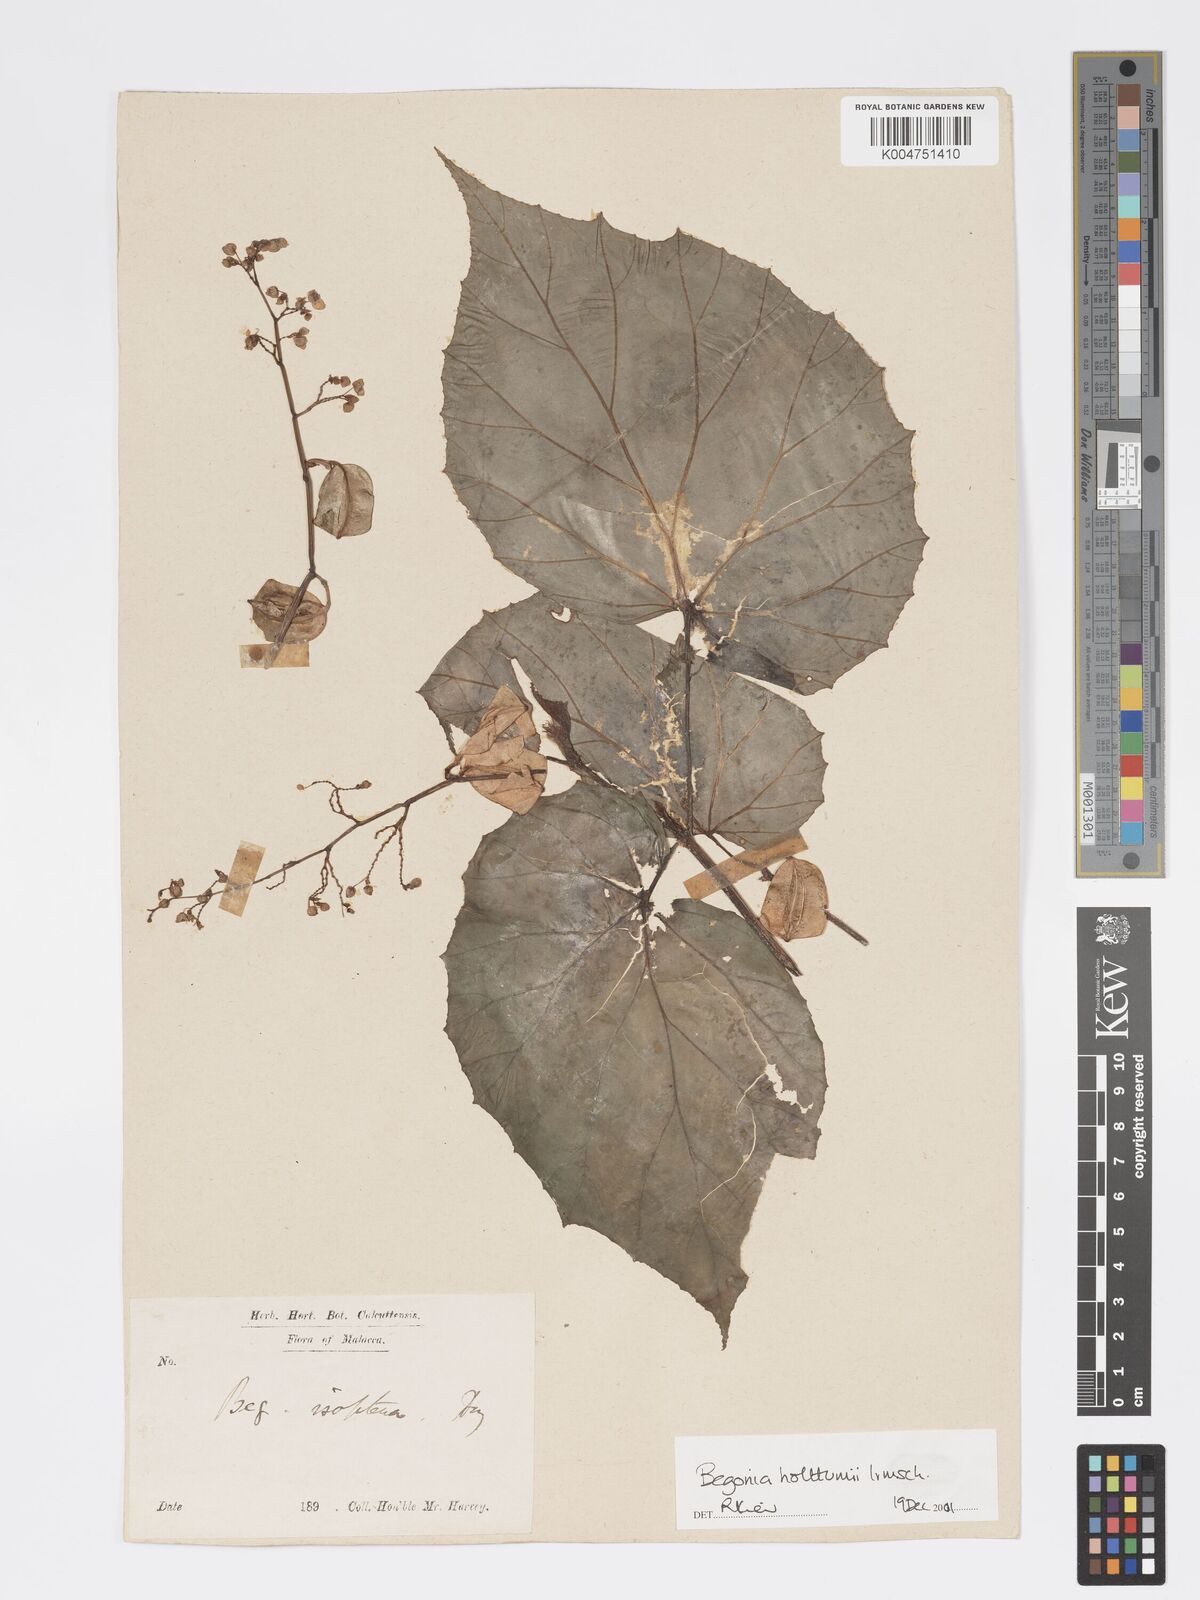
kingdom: Plantae
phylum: Tracheophyta
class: Magnoliopsida
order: Cucurbitales
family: Begoniaceae
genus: Begonia
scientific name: Begonia holttumii
